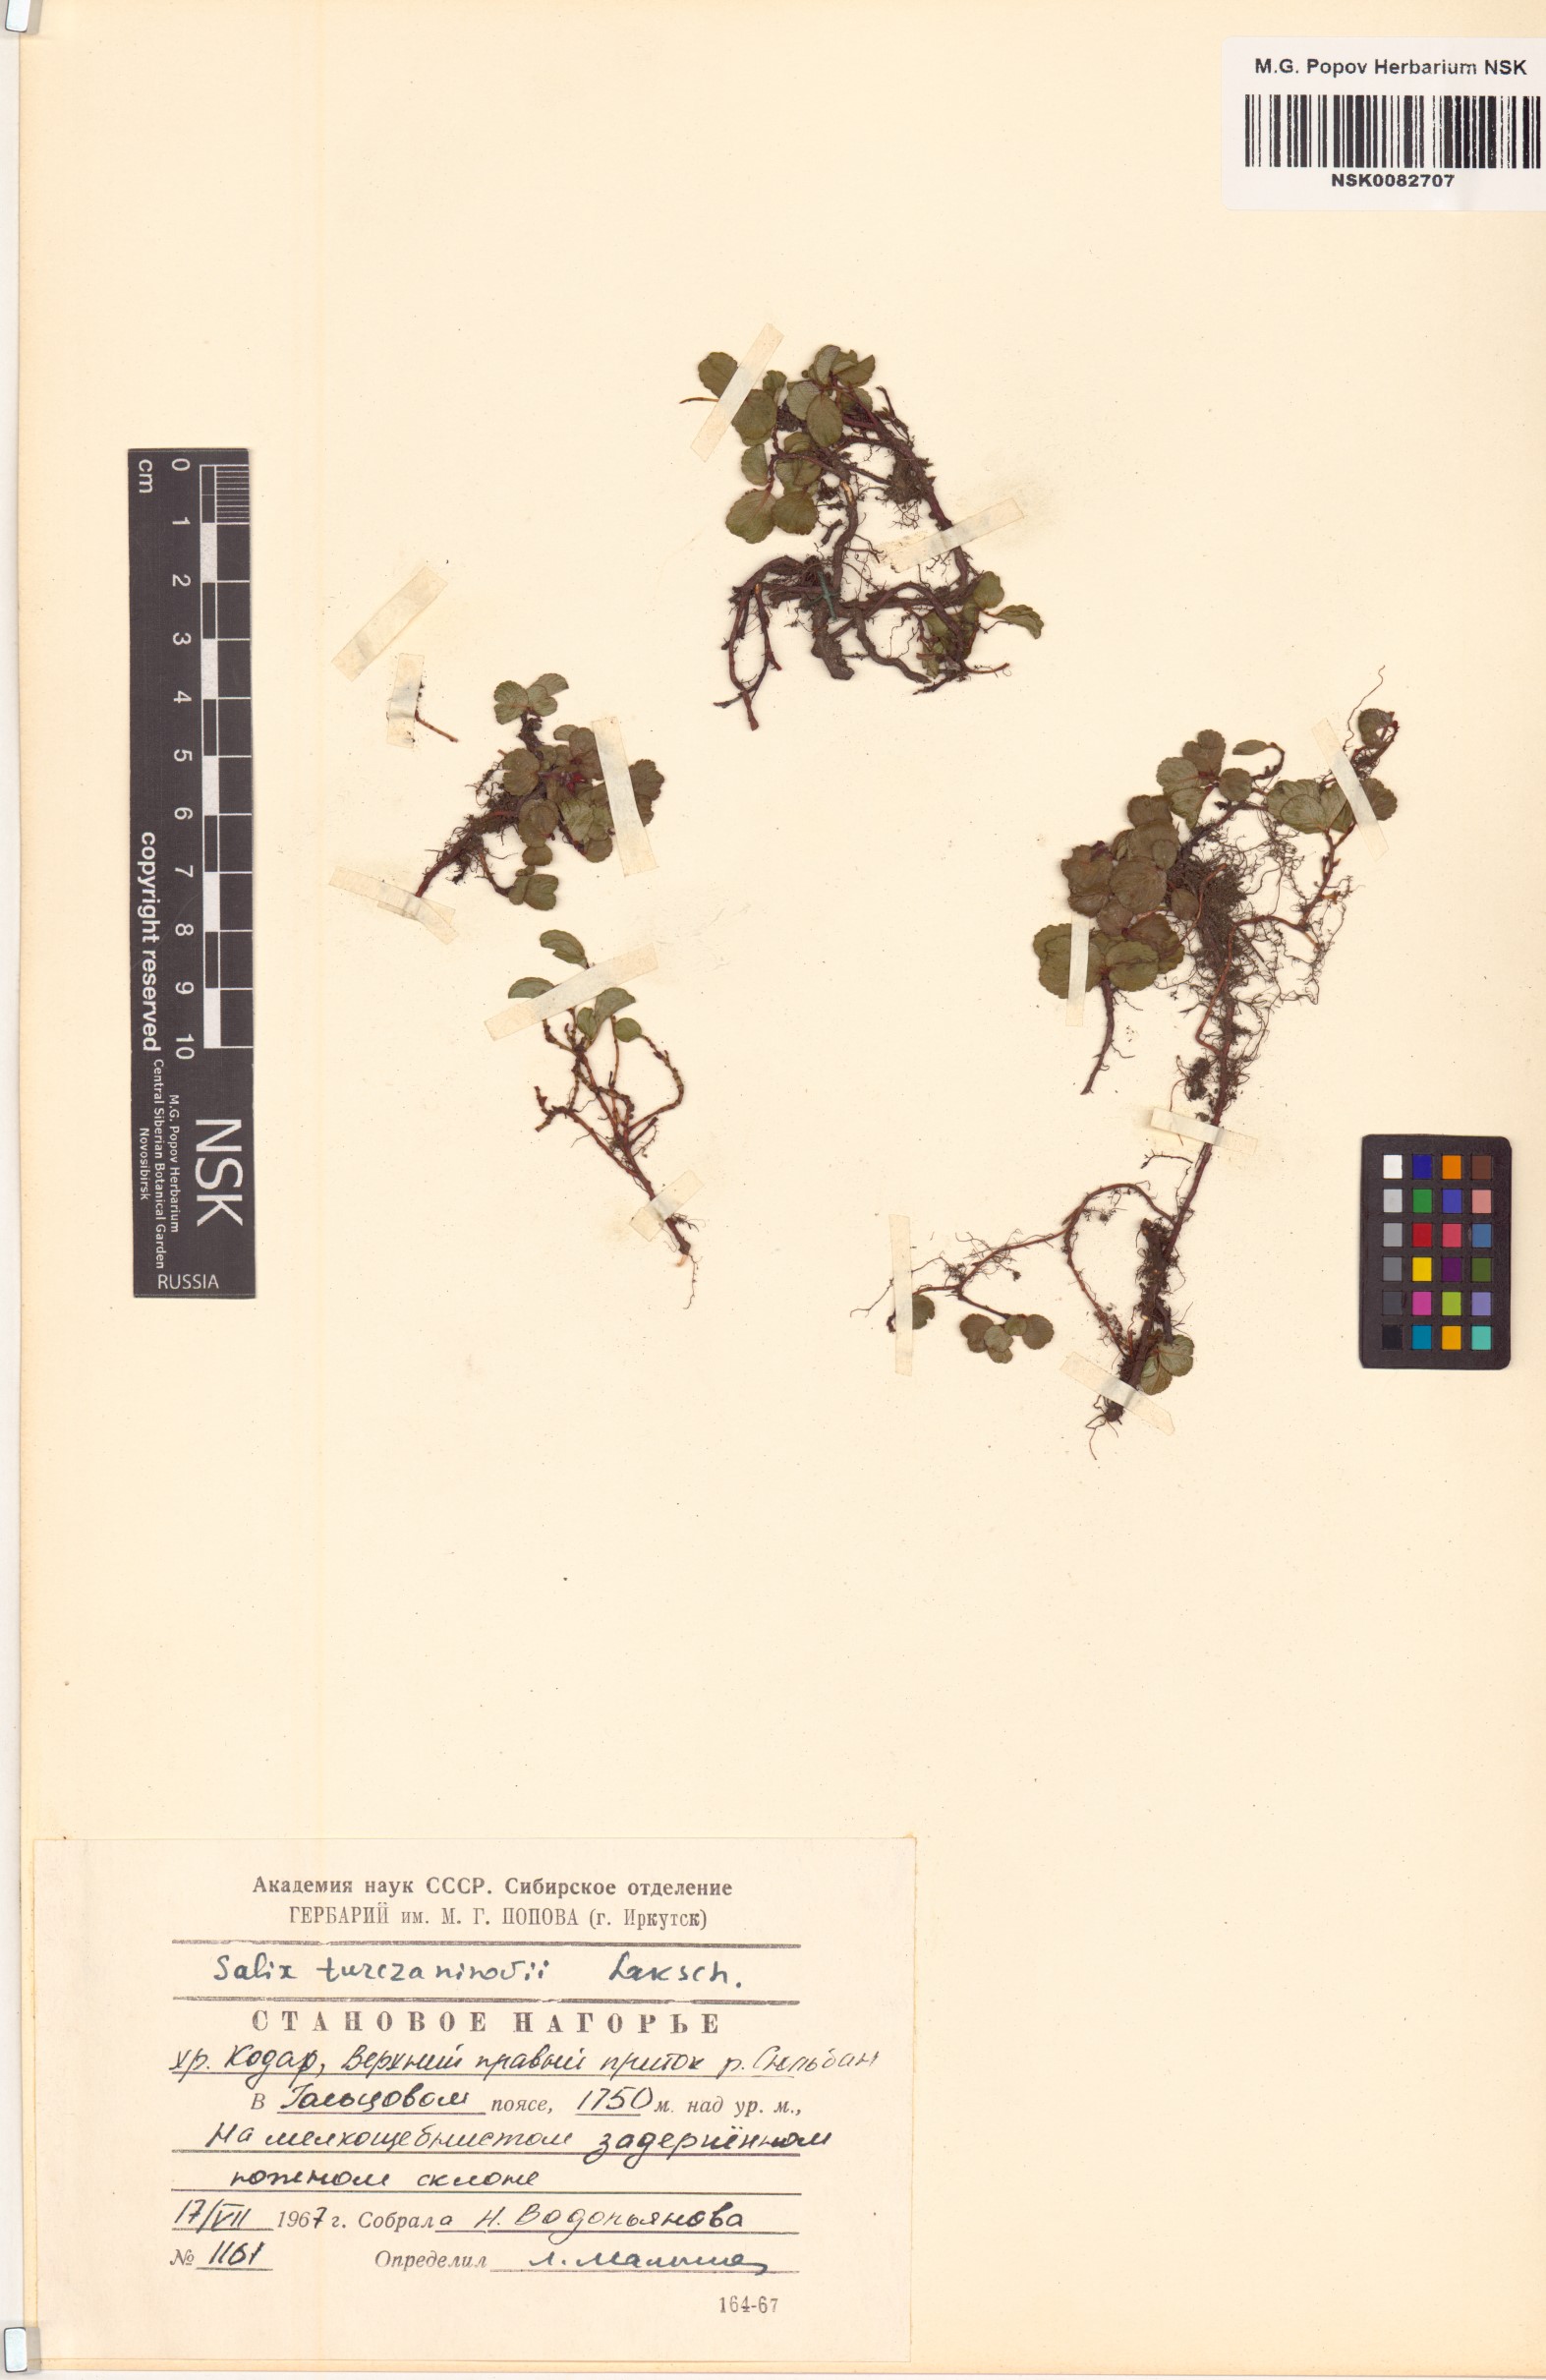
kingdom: Plantae
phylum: Tracheophyta
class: Magnoliopsida
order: Malpighiales
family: Salicaceae
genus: Salix
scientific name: Salix turczaninowii
